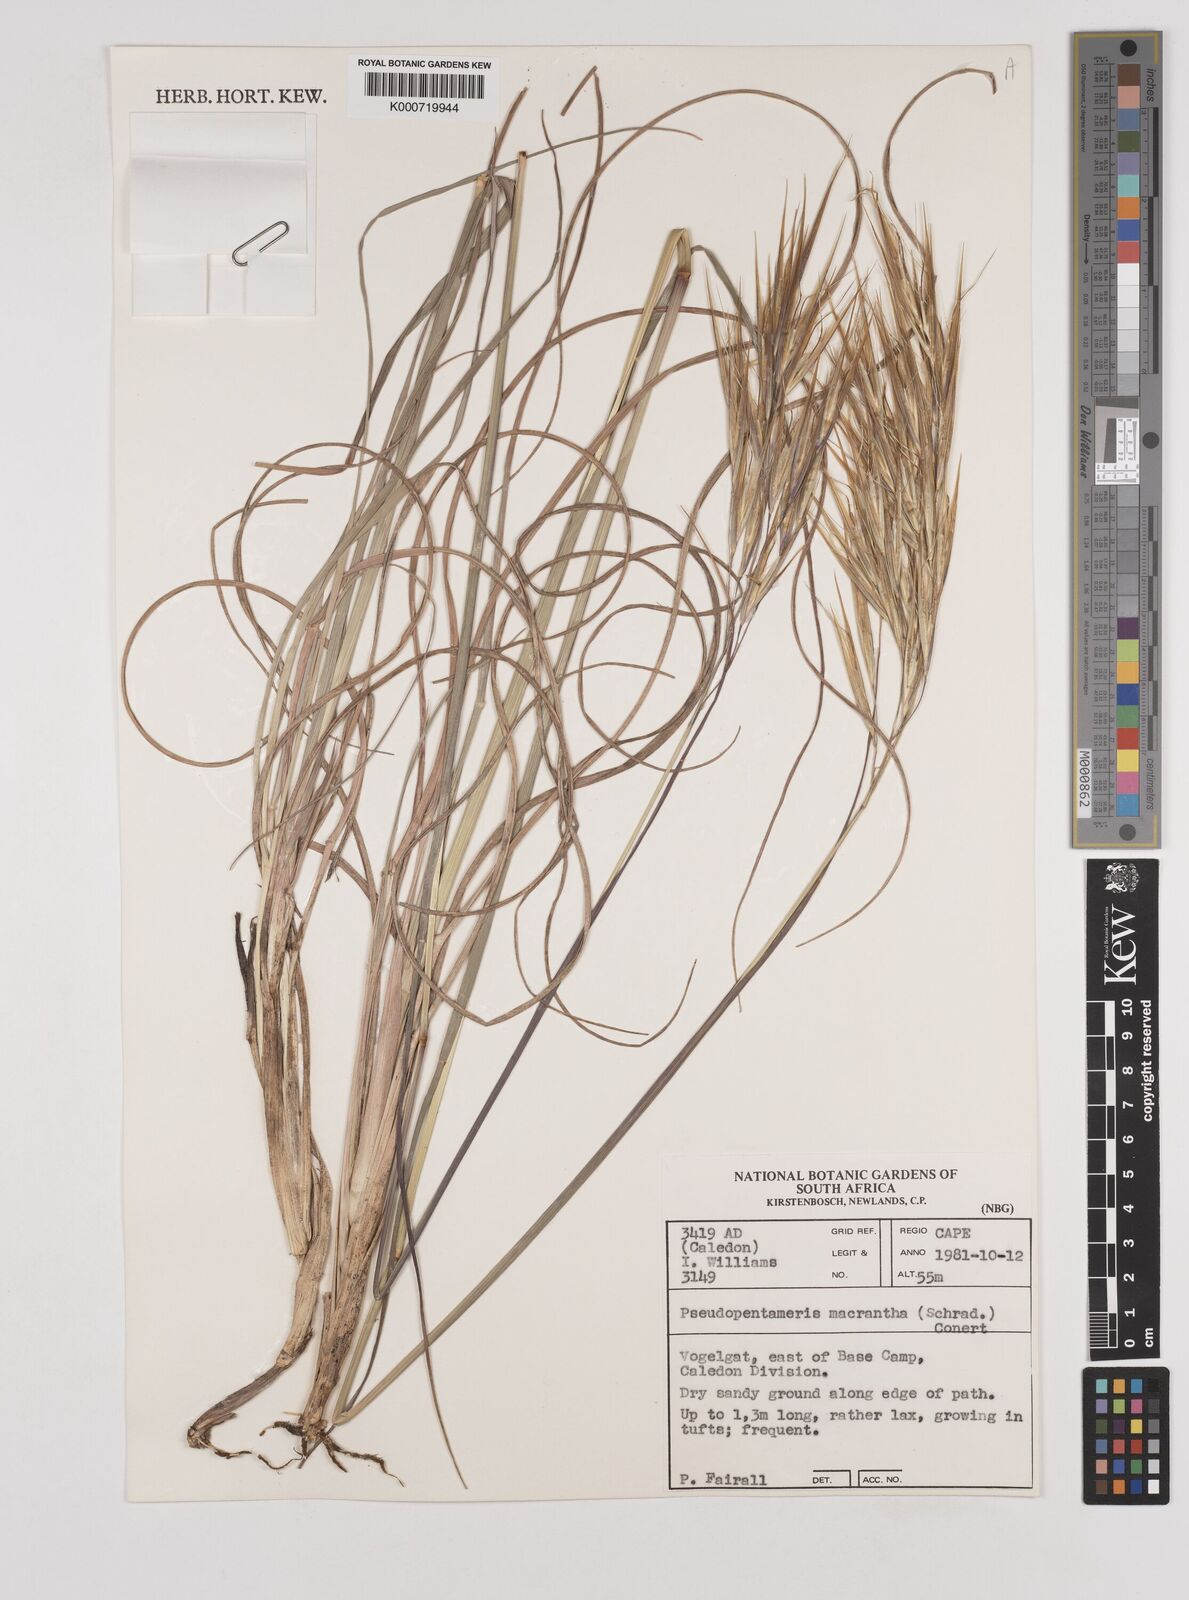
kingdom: Plantae
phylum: Tracheophyta
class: Liliopsida
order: Poales
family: Poaceae
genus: Pseudopentameris
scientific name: Pseudopentameris brachyphylla
